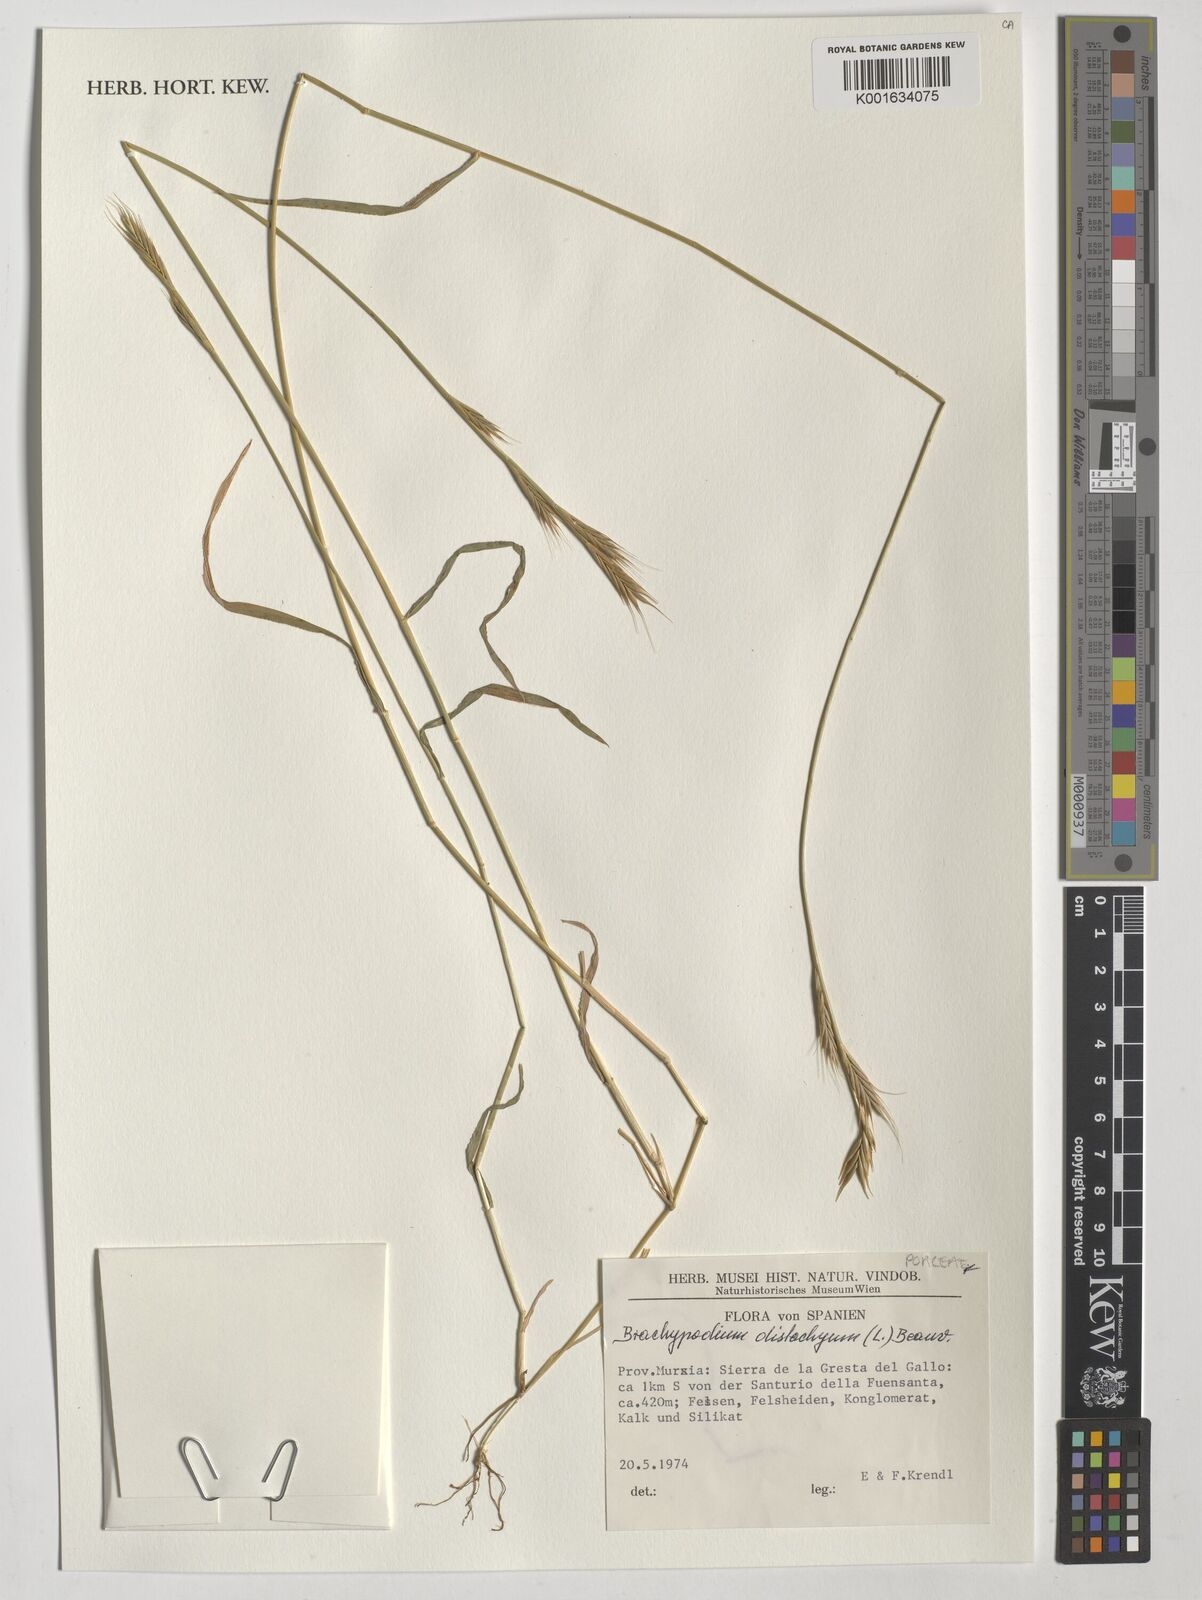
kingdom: Plantae
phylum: Tracheophyta
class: Liliopsida
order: Poales
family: Poaceae
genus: Brachypodium
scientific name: Brachypodium distachyon
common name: Stiff brome
